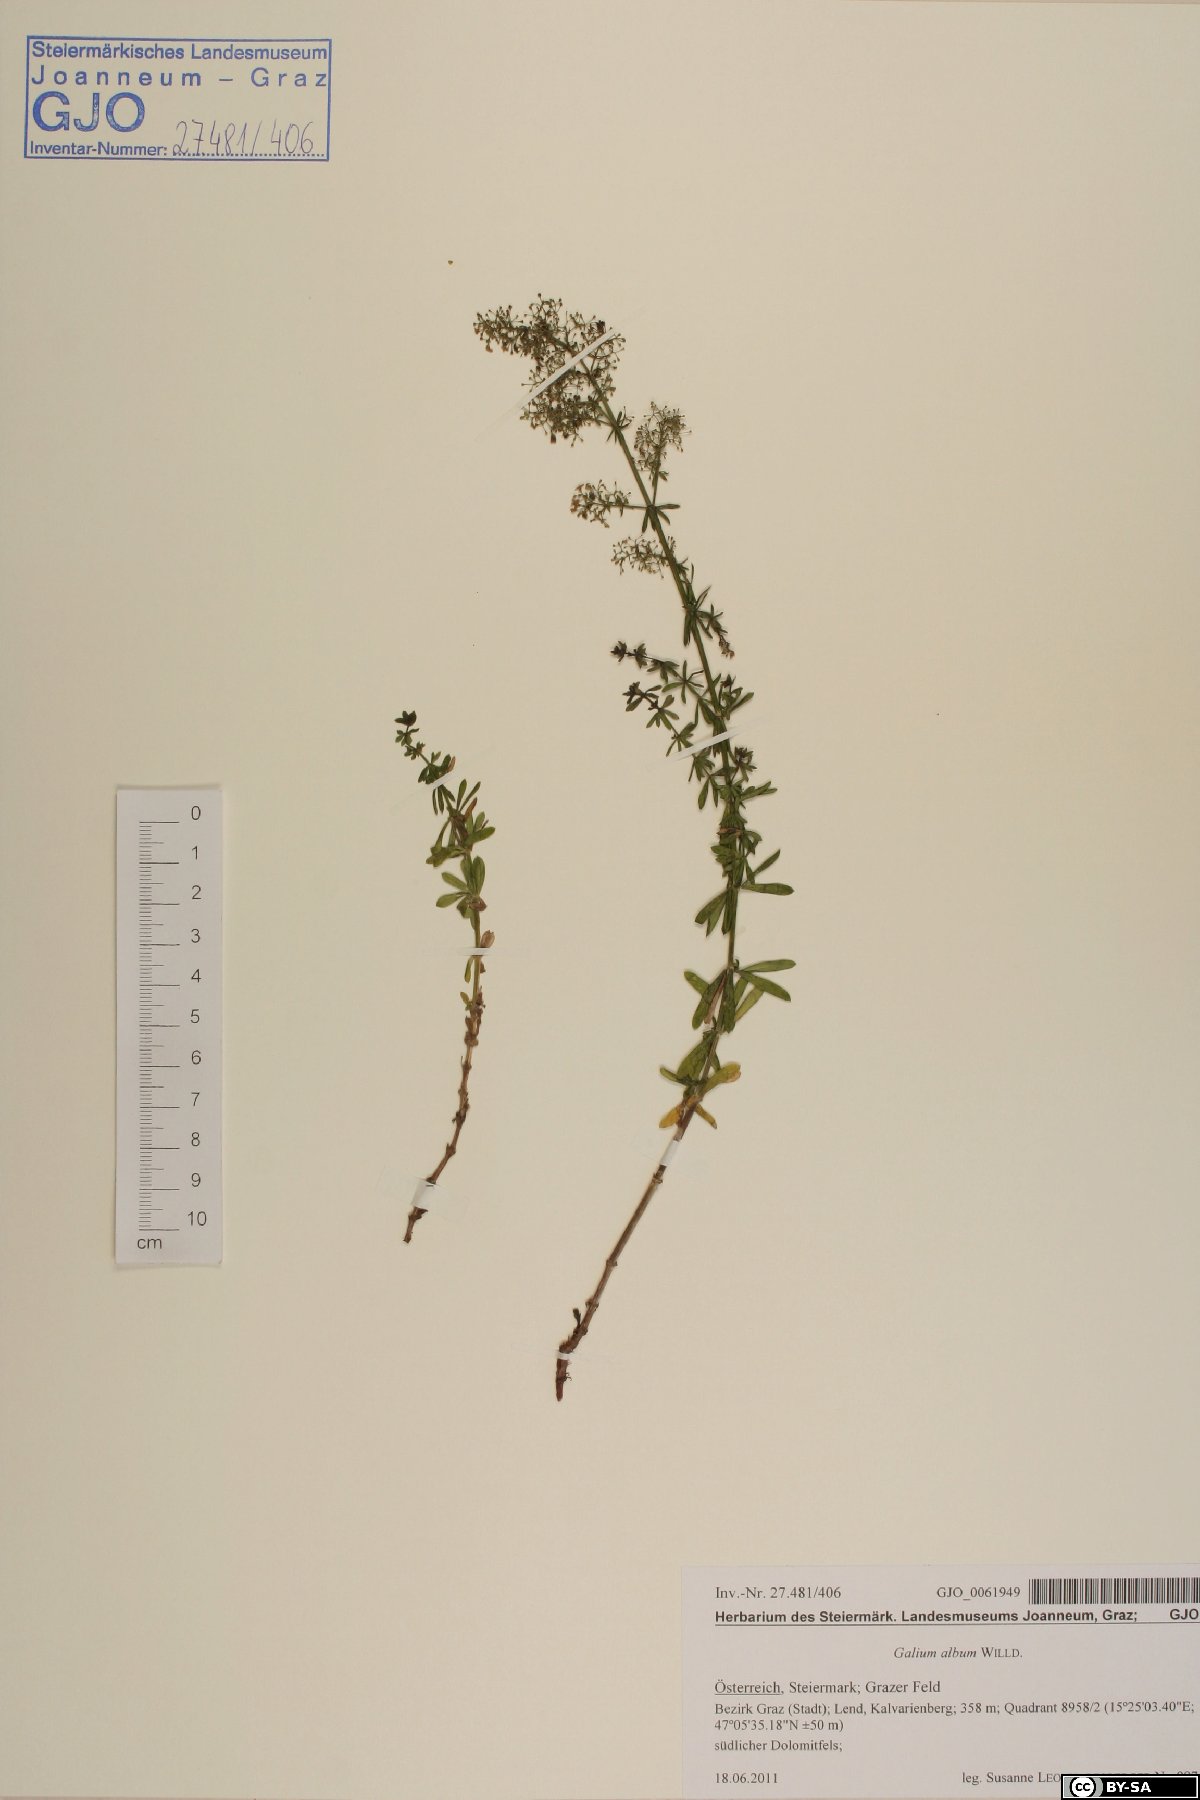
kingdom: Plantae
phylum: Tracheophyta
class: Magnoliopsida
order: Gentianales
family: Rubiaceae
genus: Galium
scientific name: Galium album
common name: White bedstraw
